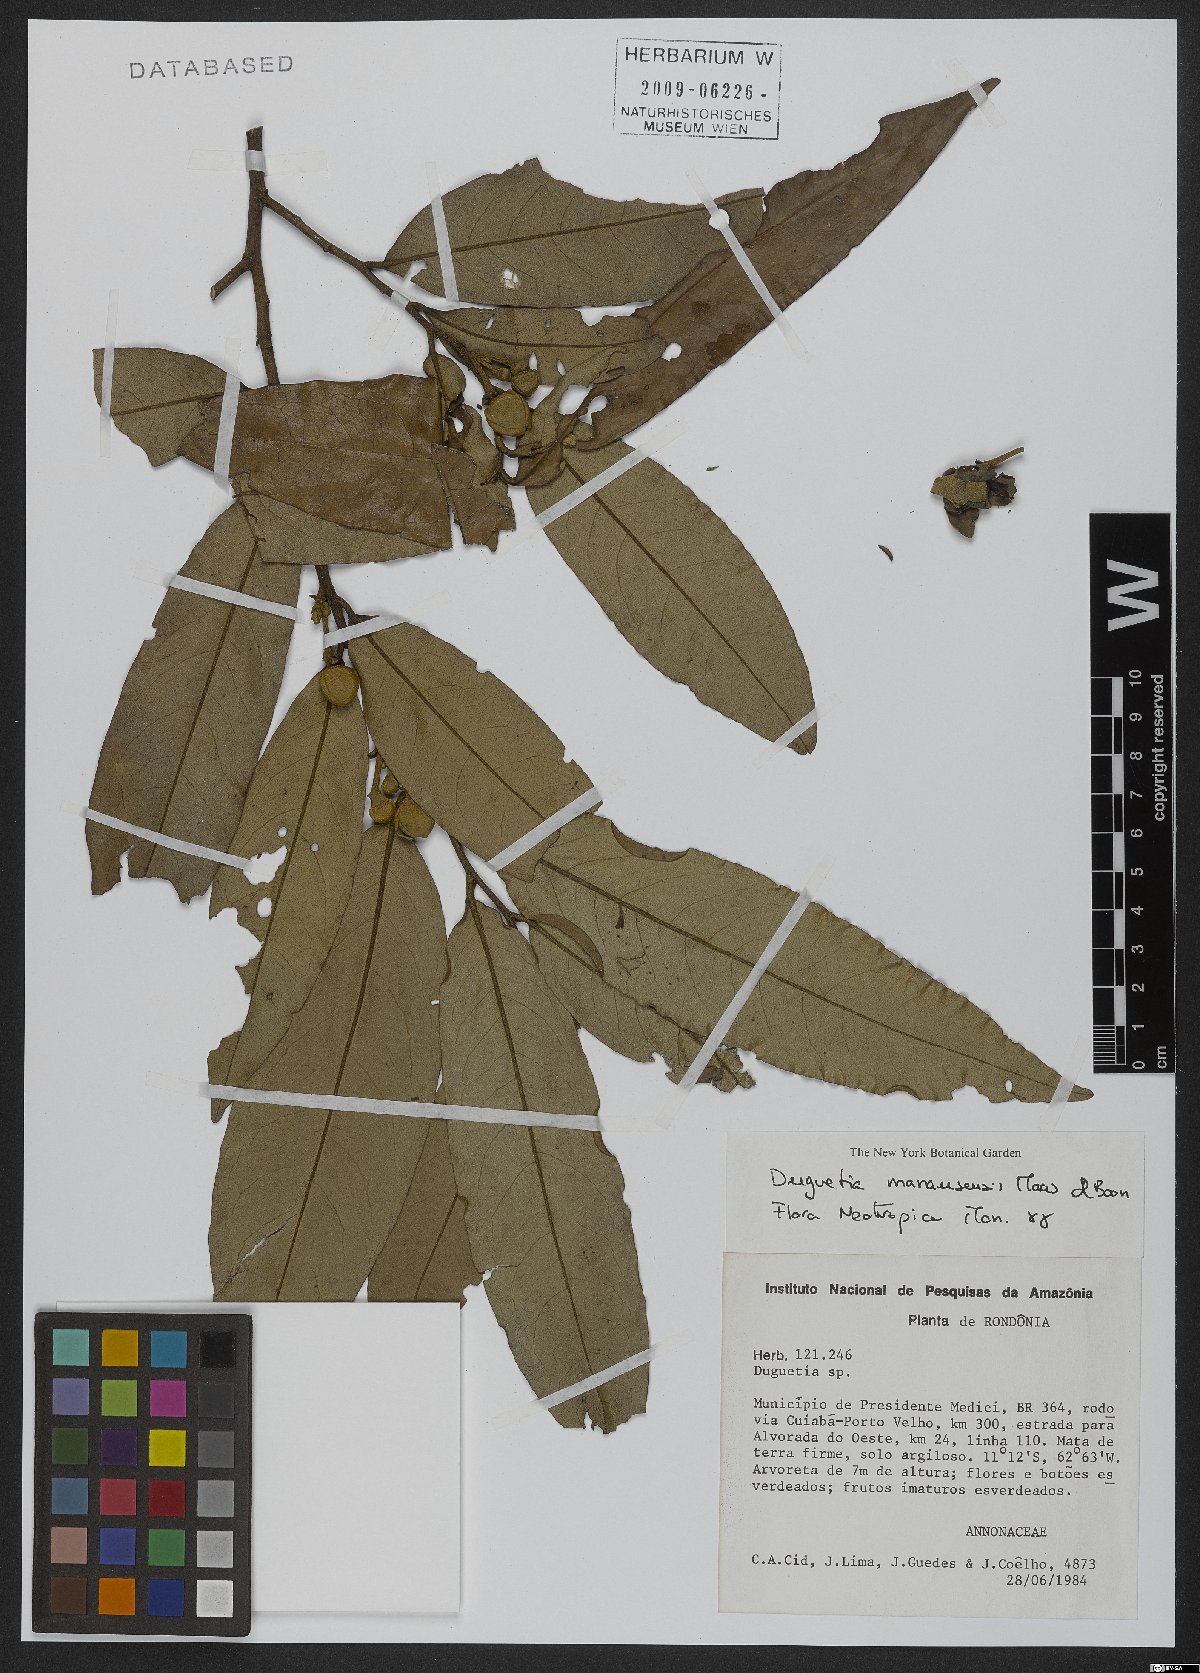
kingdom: Plantae
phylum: Tracheophyta
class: Magnoliopsida
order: Magnoliales
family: Annonaceae
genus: Duguetia
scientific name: Duguetia manausensis
